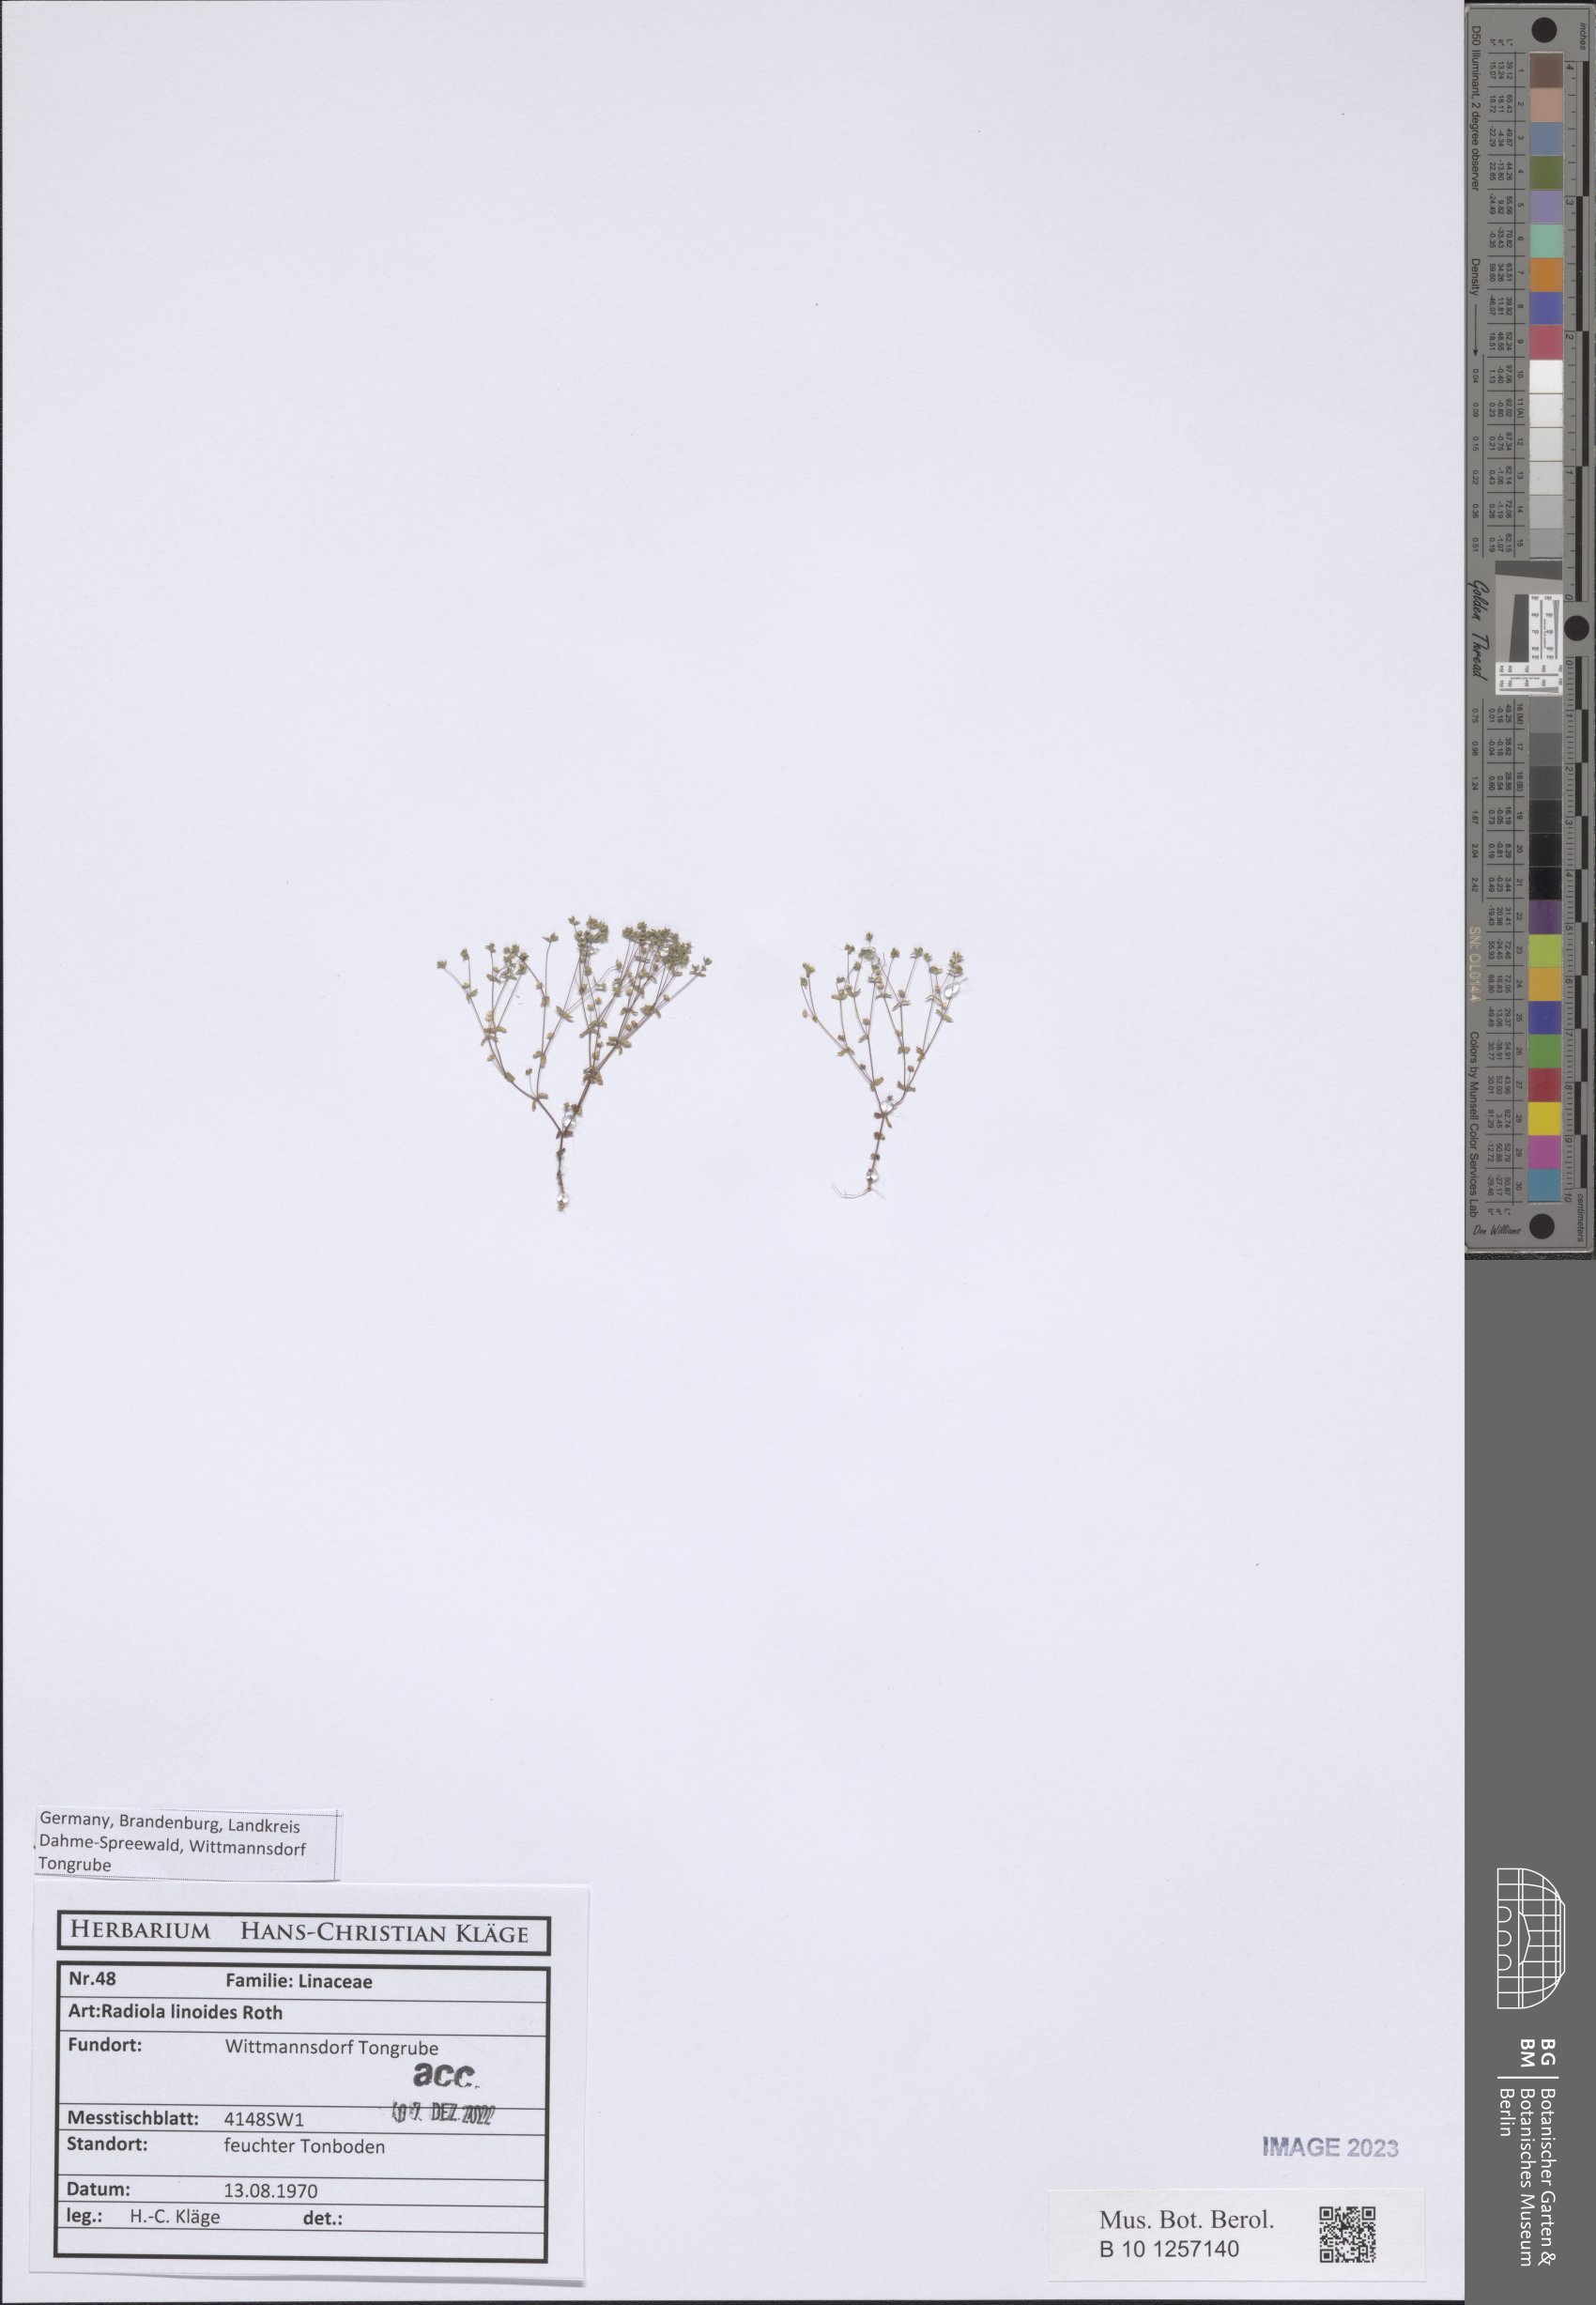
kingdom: Plantae
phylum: Tracheophyta
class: Magnoliopsida
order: Malpighiales
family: Linaceae
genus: Radiola
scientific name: Radiola linoides
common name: Allseed
